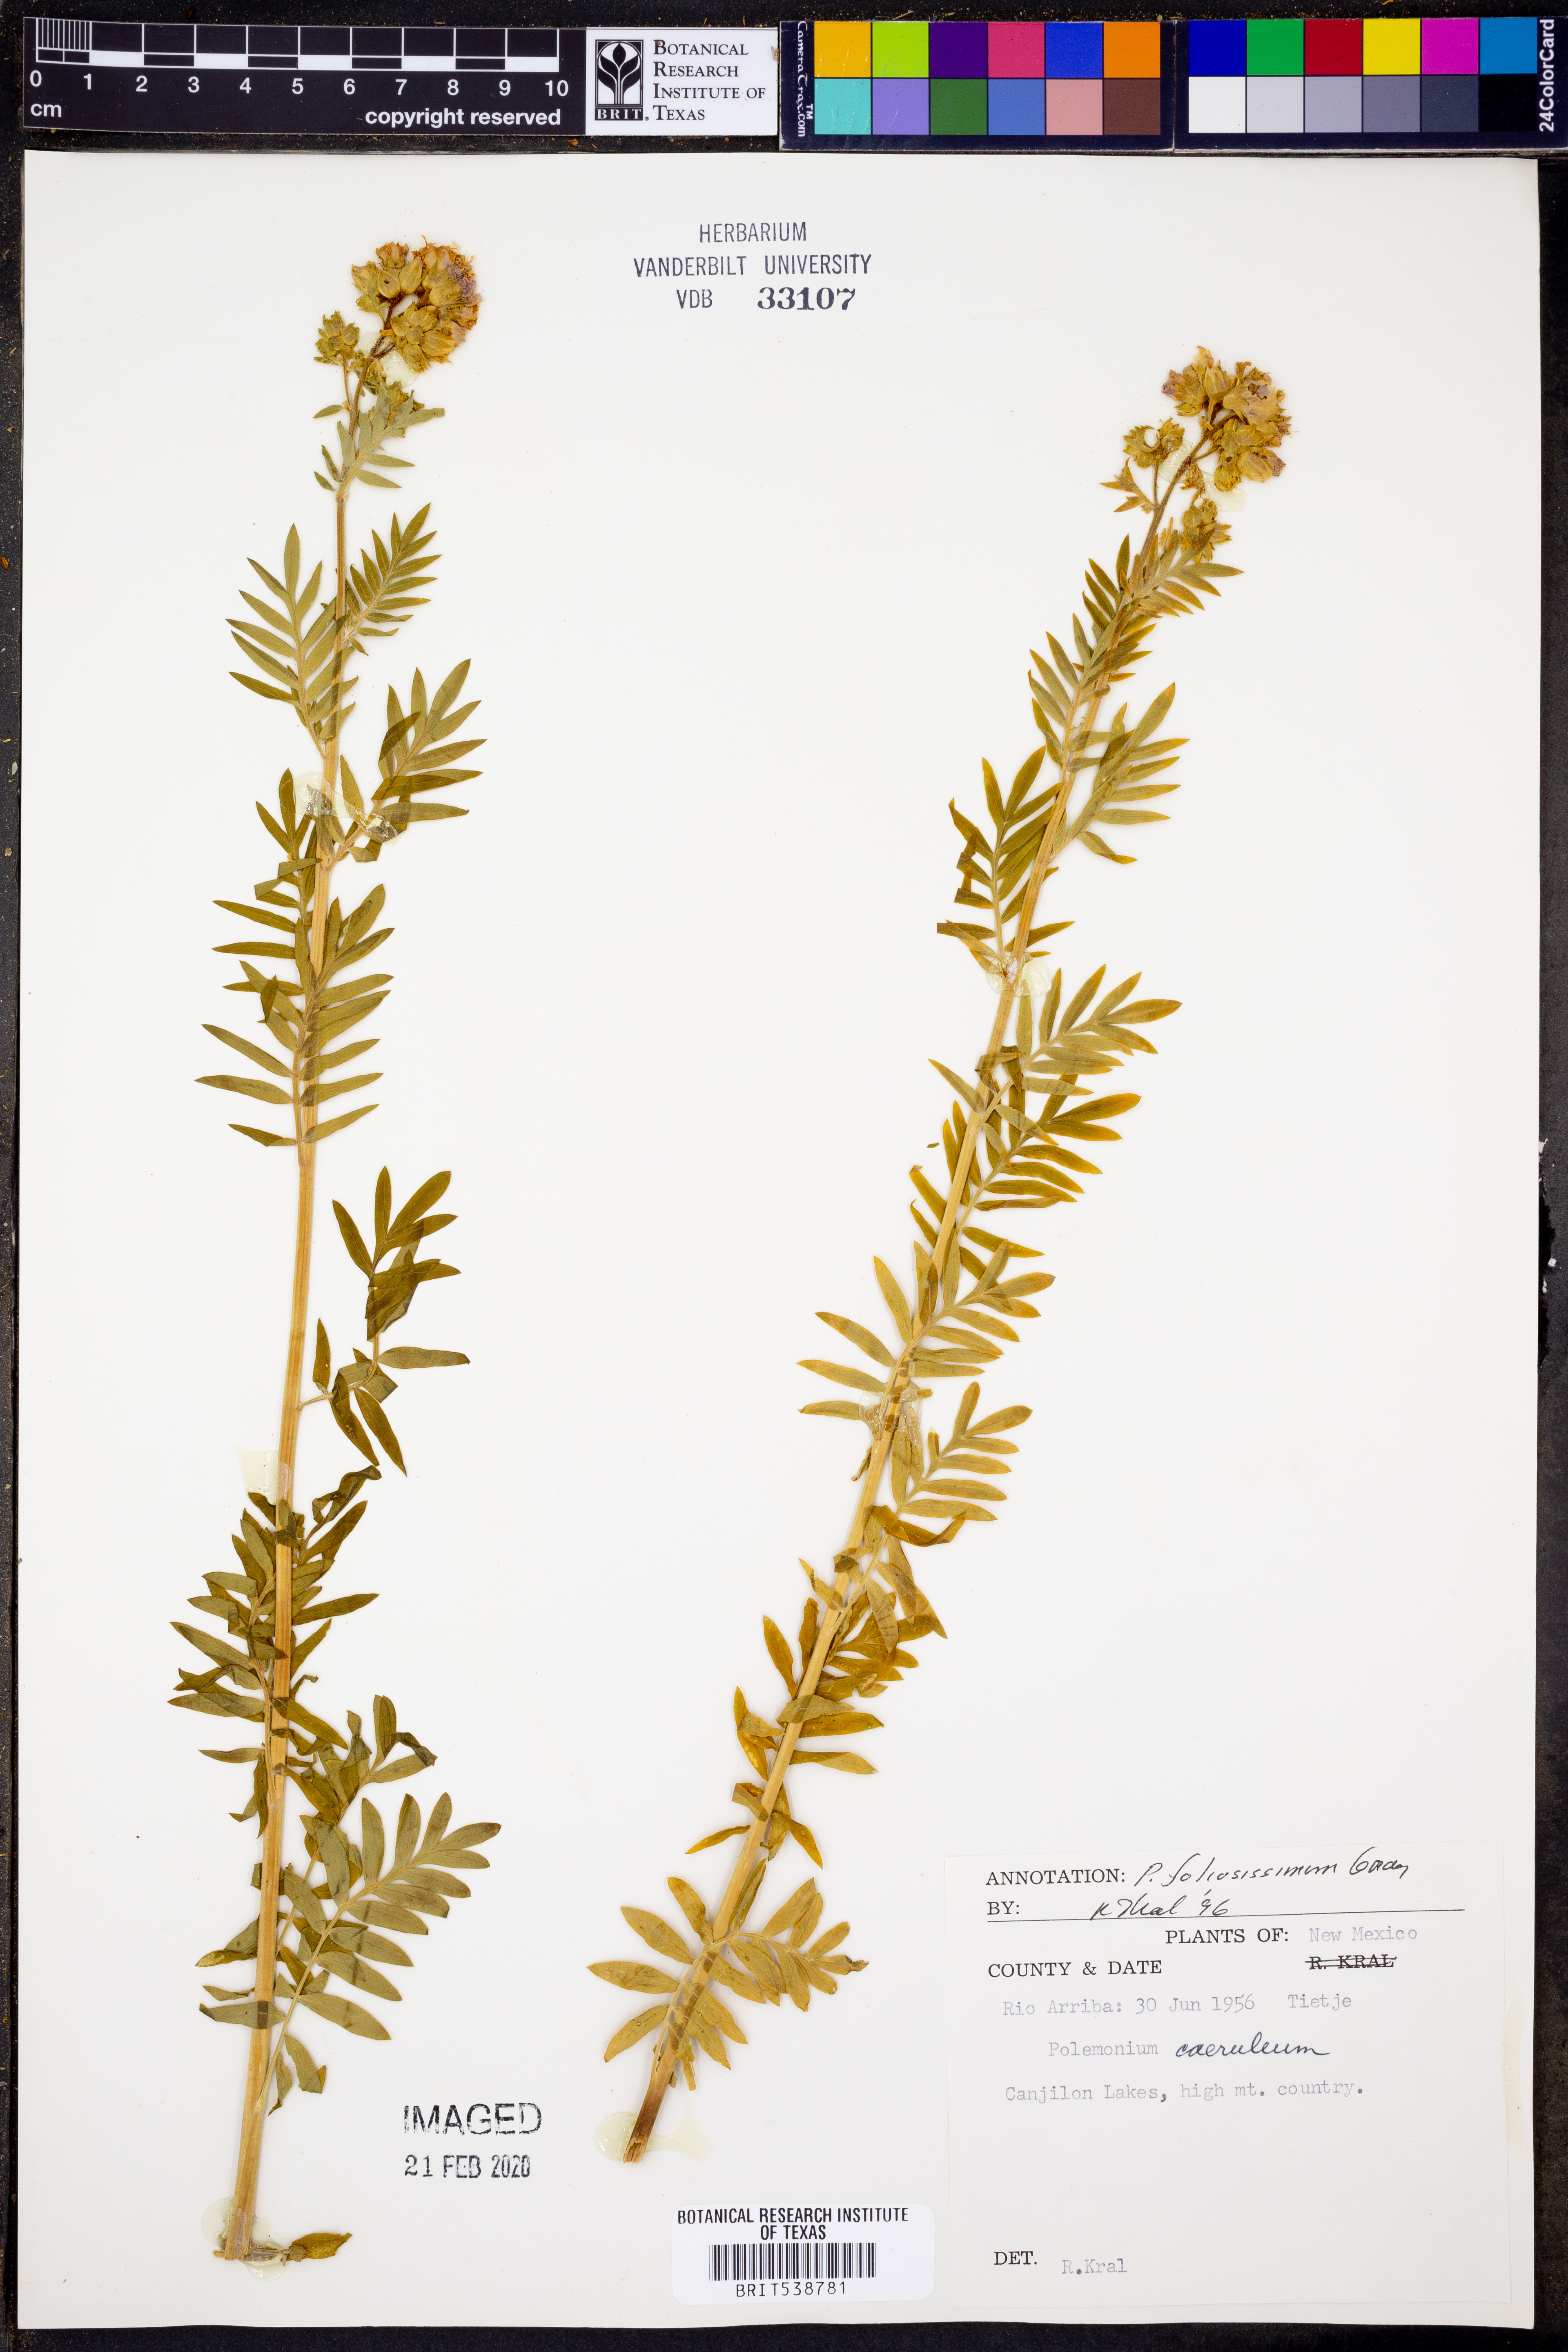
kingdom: Plantae
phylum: Tracheophyta
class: Magnoliopsida
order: Ericales
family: Polemoniaceae
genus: Polemonium
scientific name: Polemonium foliosissimum
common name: Leafy jacob's-ladder
